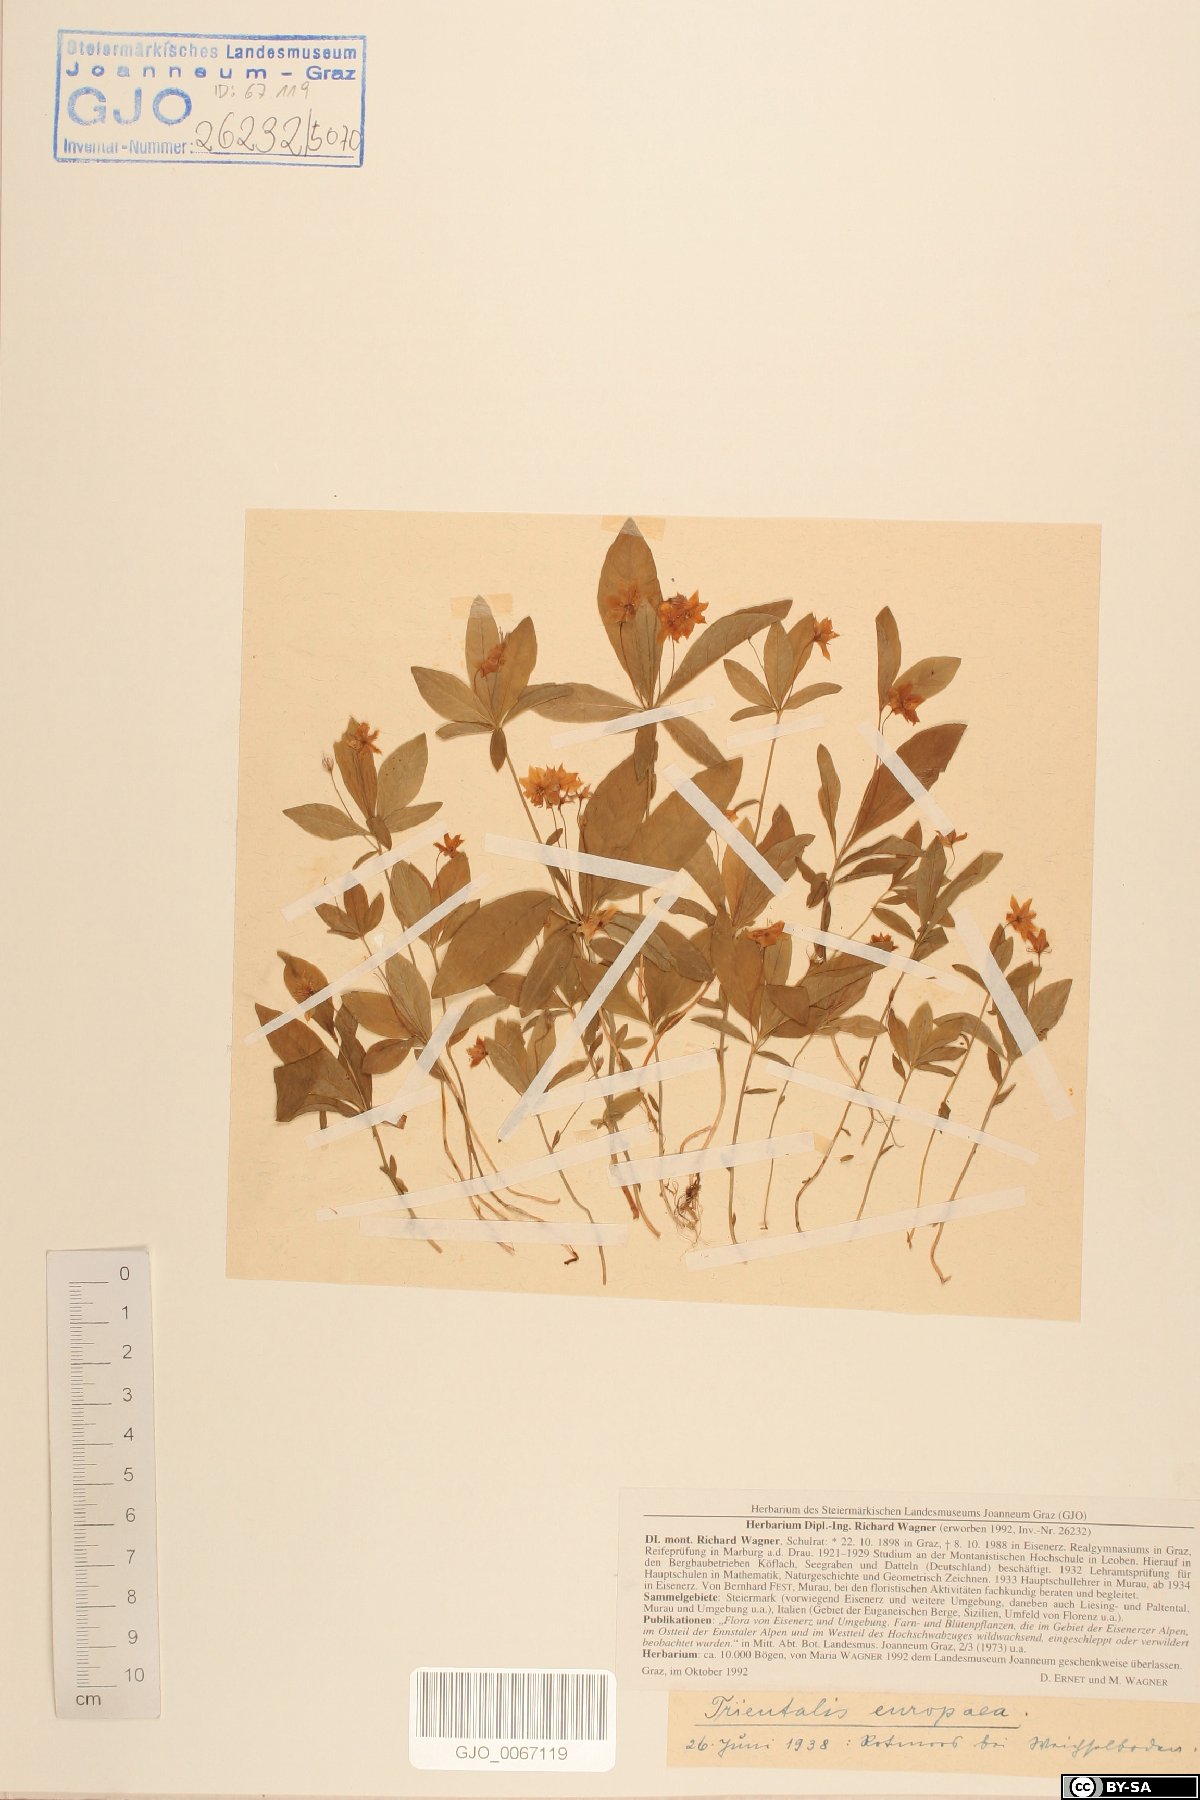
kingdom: Plantae
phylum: Tracheophyta
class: Magnoliopsida
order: Ericales
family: Primulaceae
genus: Lysimachia
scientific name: Lysimachia europaea
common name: Arctic starflower
